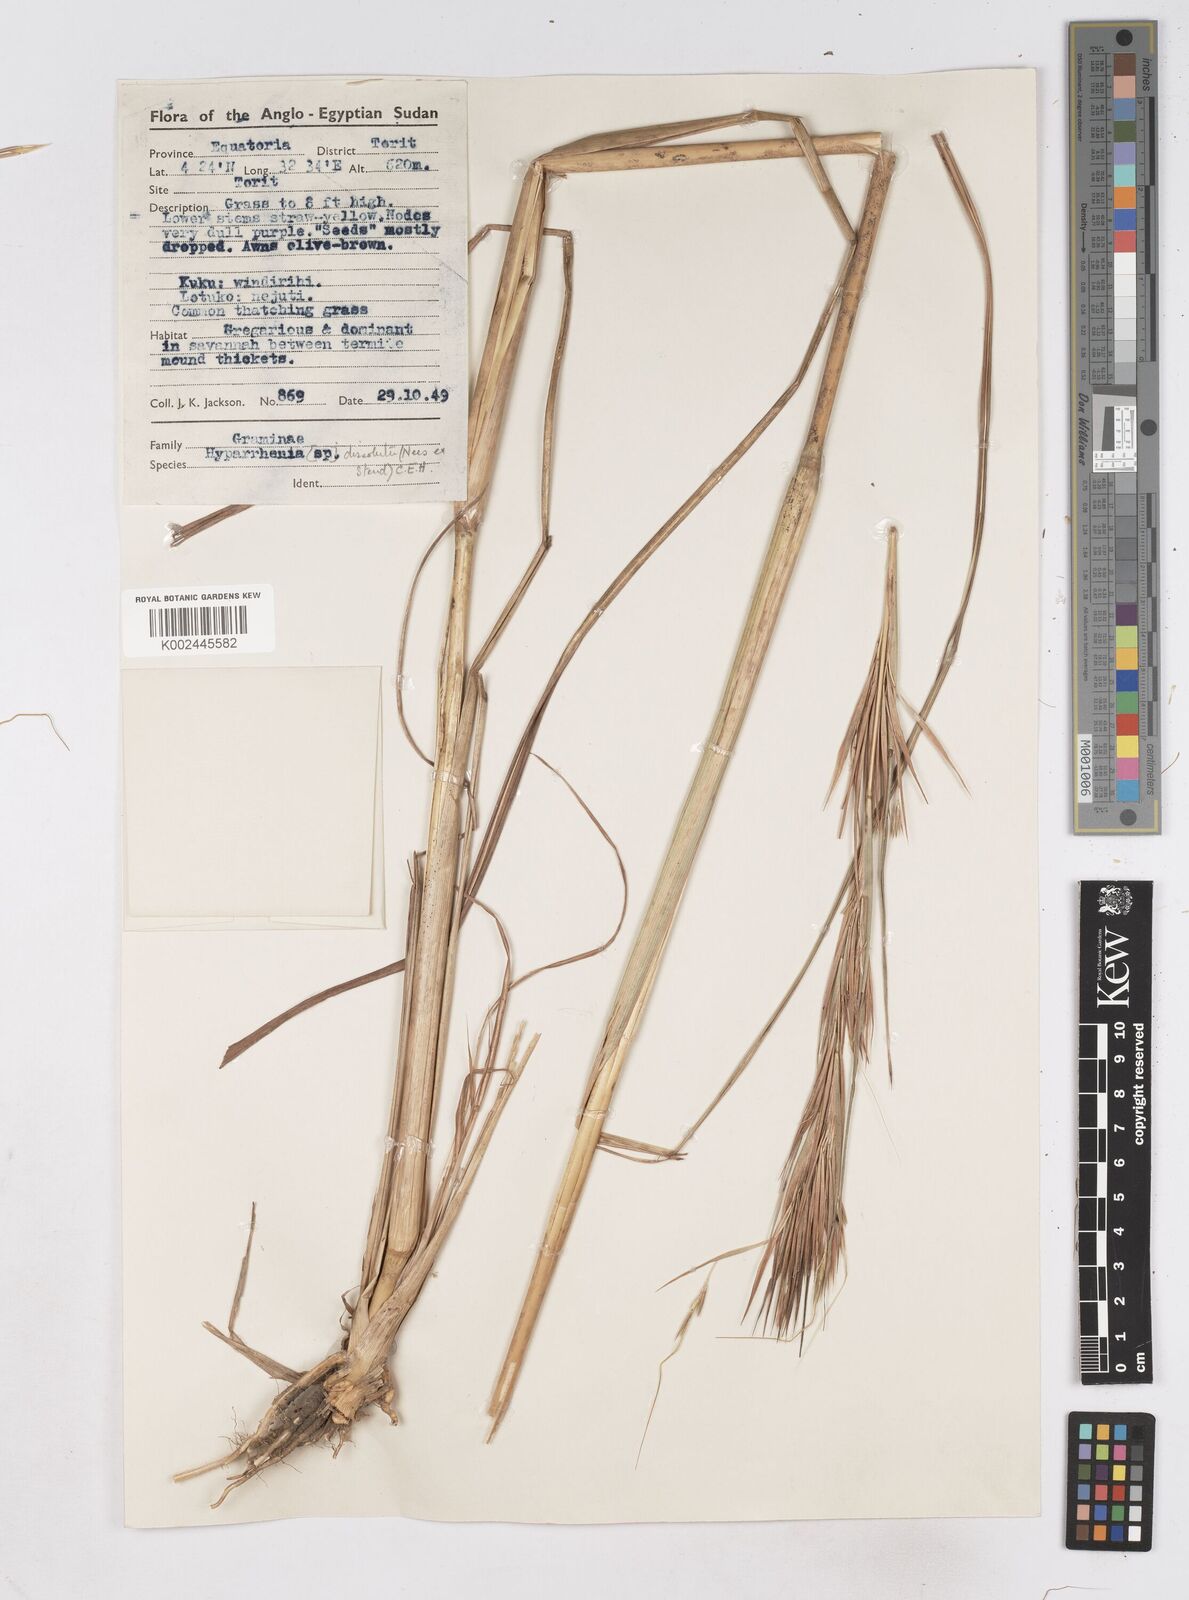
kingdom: Plantae
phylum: Tracheophyta
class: Liliopsida
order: Poales
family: Poaceae
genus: Hyperthelia
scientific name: Hyperthelia dissoluta
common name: Yellow thatching grass
